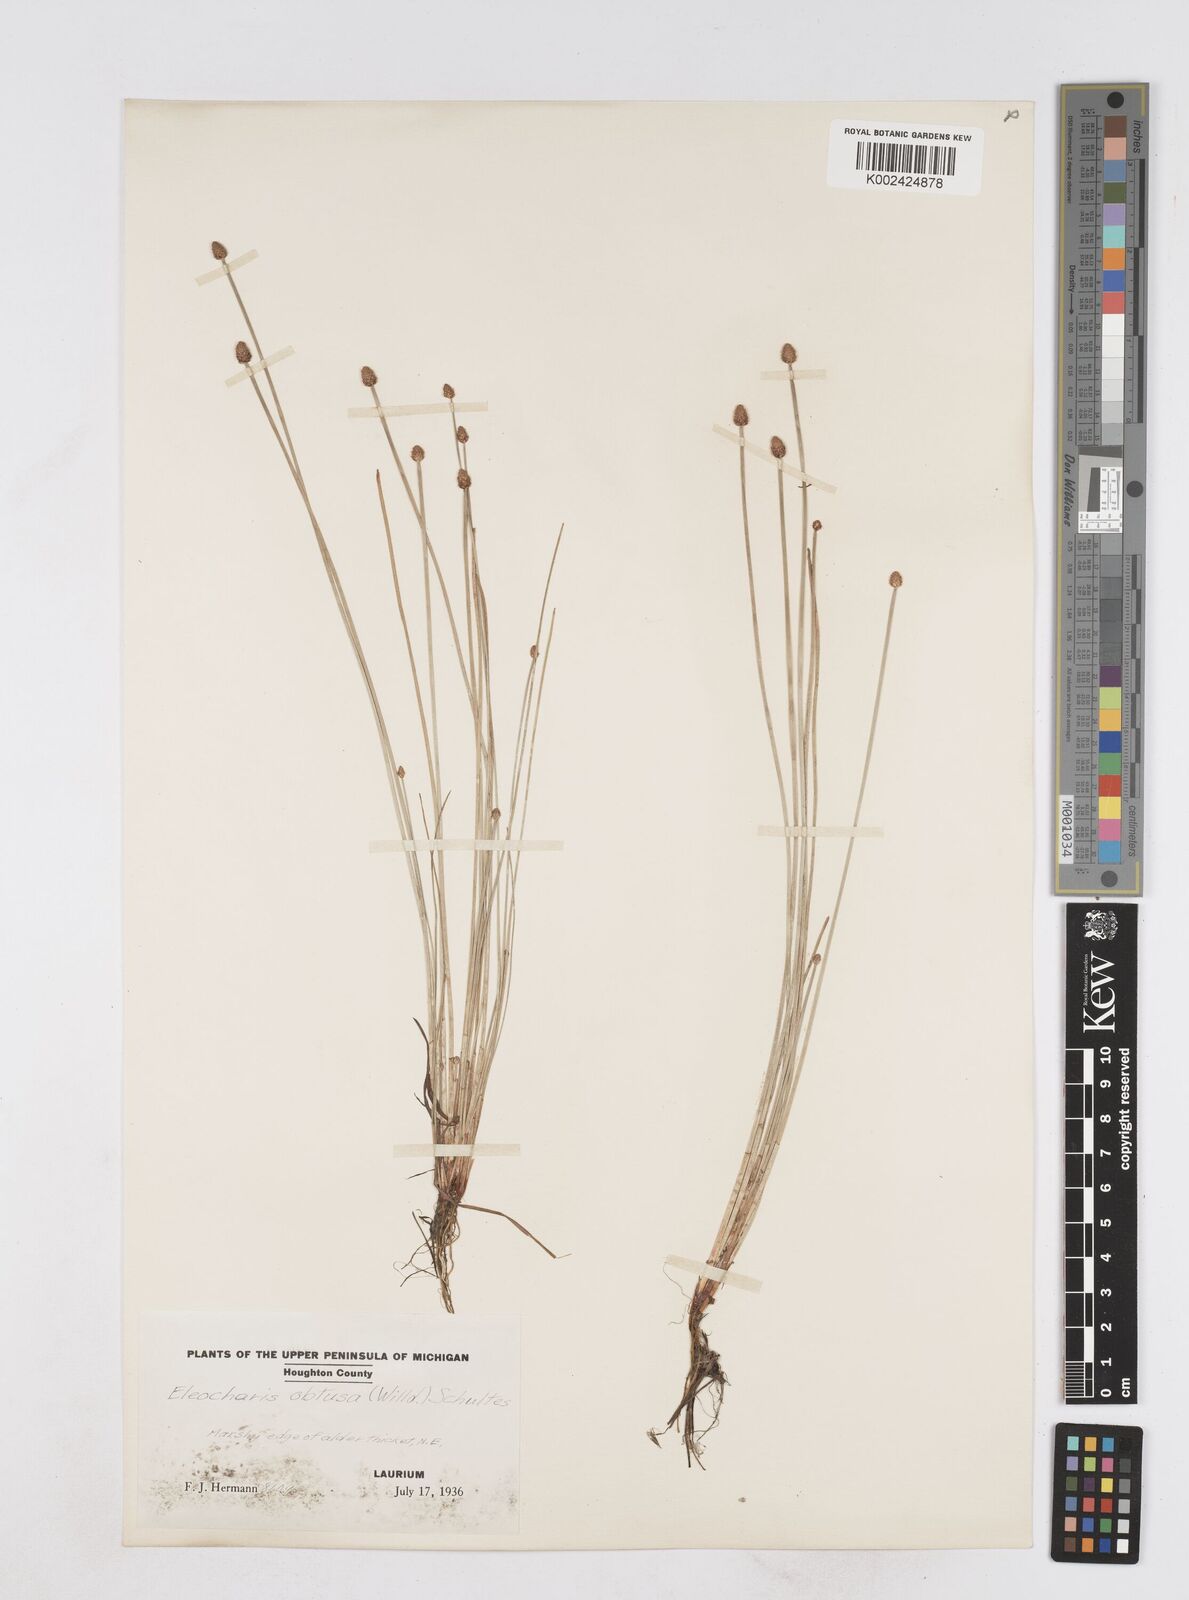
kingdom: Plantae
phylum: Tracheophyta
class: Liliopsida
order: Poales
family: Cyperaceae
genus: Eleocharis
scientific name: Eleocharis obtusa
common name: Blunt spikerush
